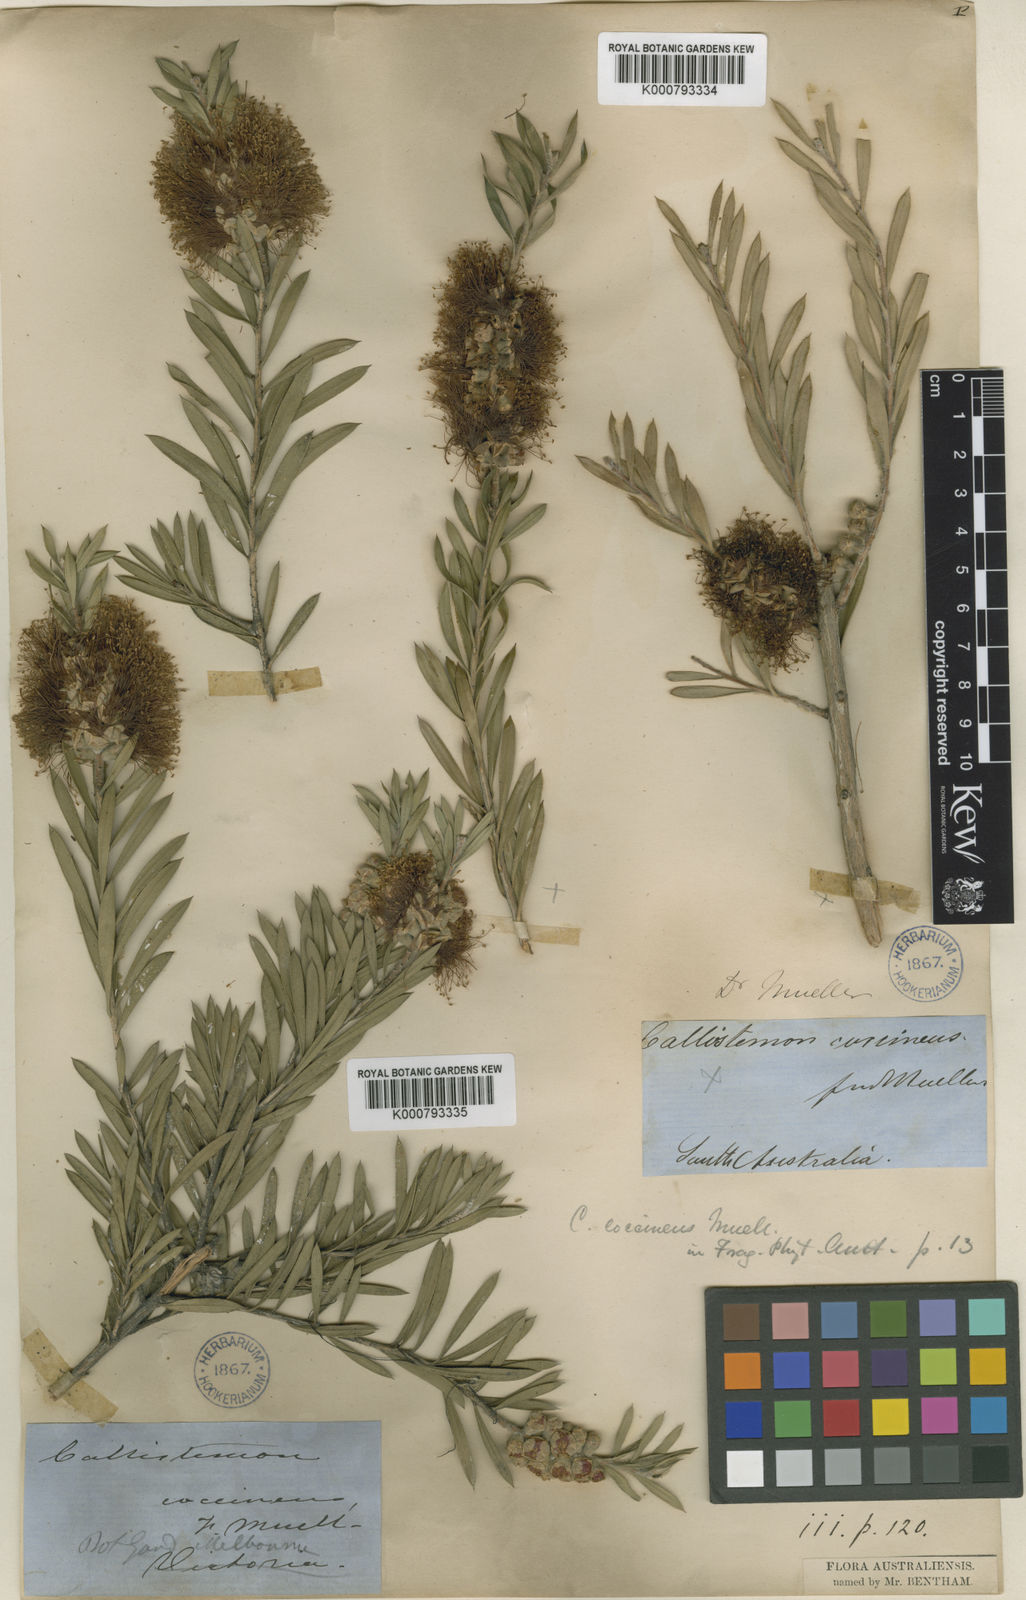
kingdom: Plantae
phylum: Tracheophyta
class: Magnoliopsida
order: Myrtales
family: Myrtaceae
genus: Callistemon
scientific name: Callistemon coccineus
